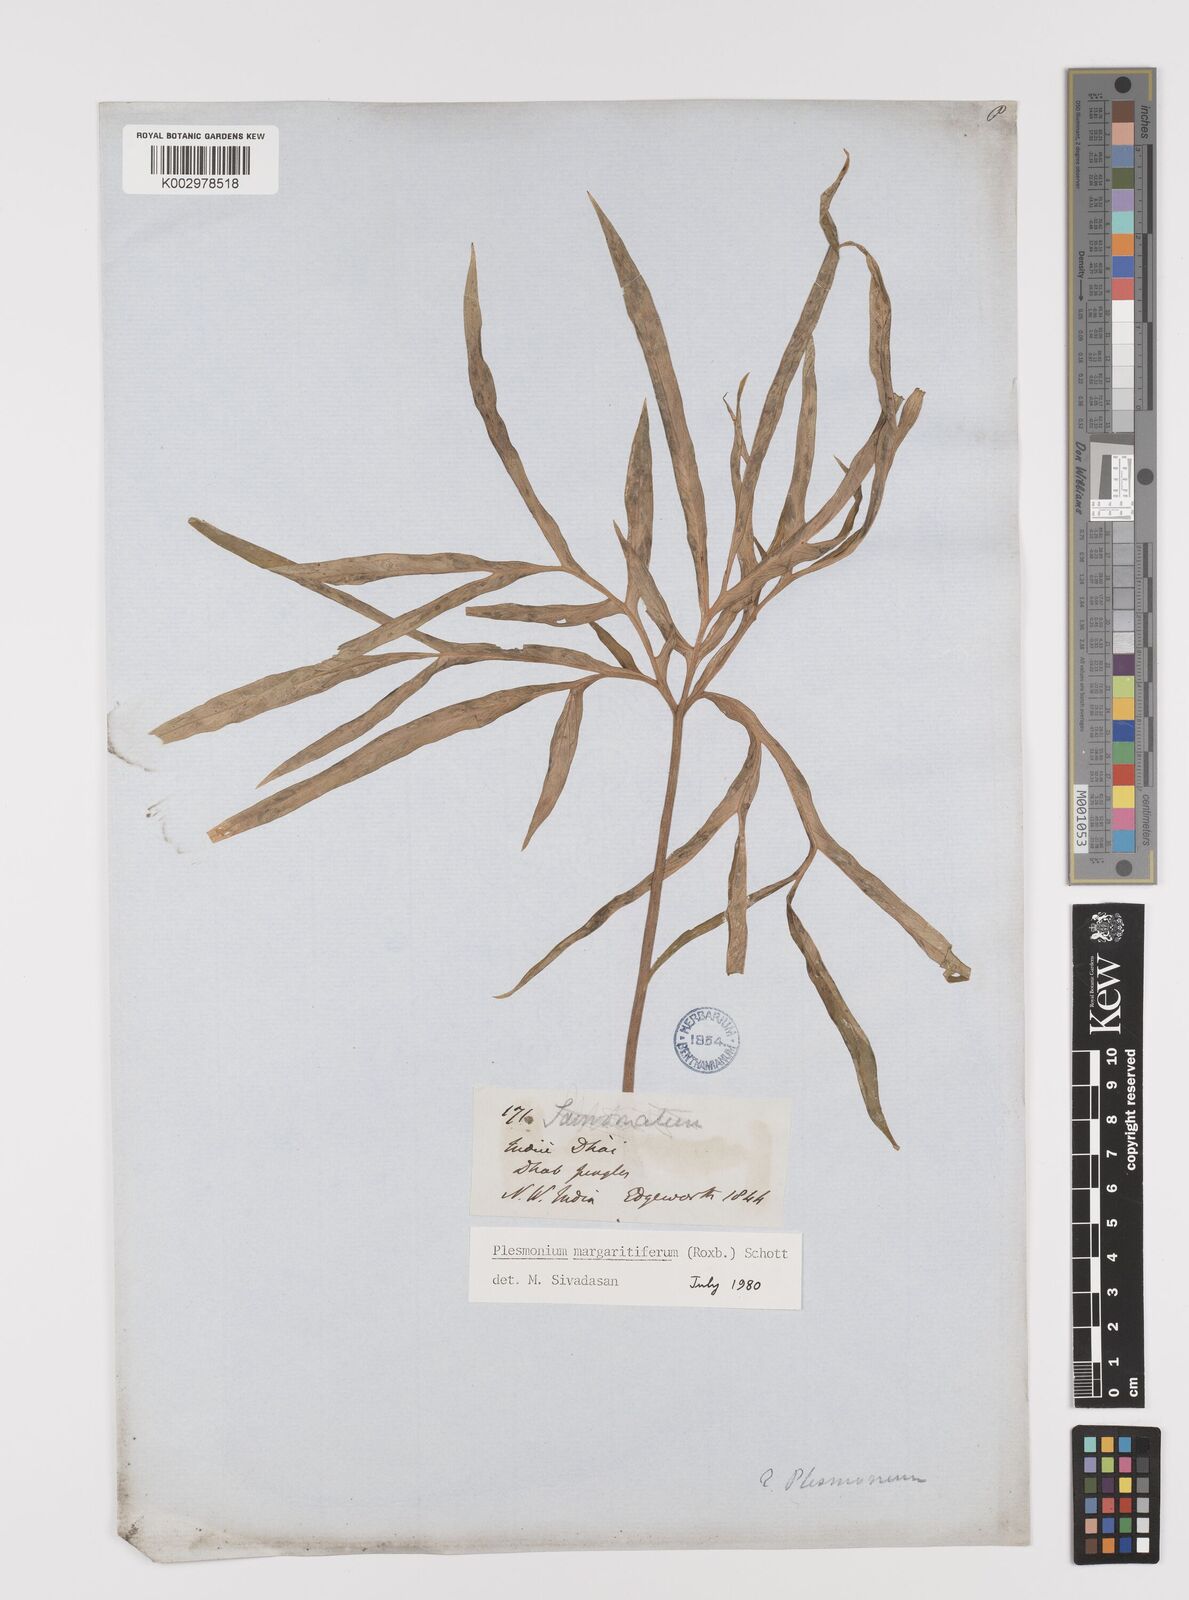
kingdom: Plantae
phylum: Tracheophyta
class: Liliopsida
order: Alismatales
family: Araceae
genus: Amorphophallus
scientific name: Amorphophallus margaritifer
